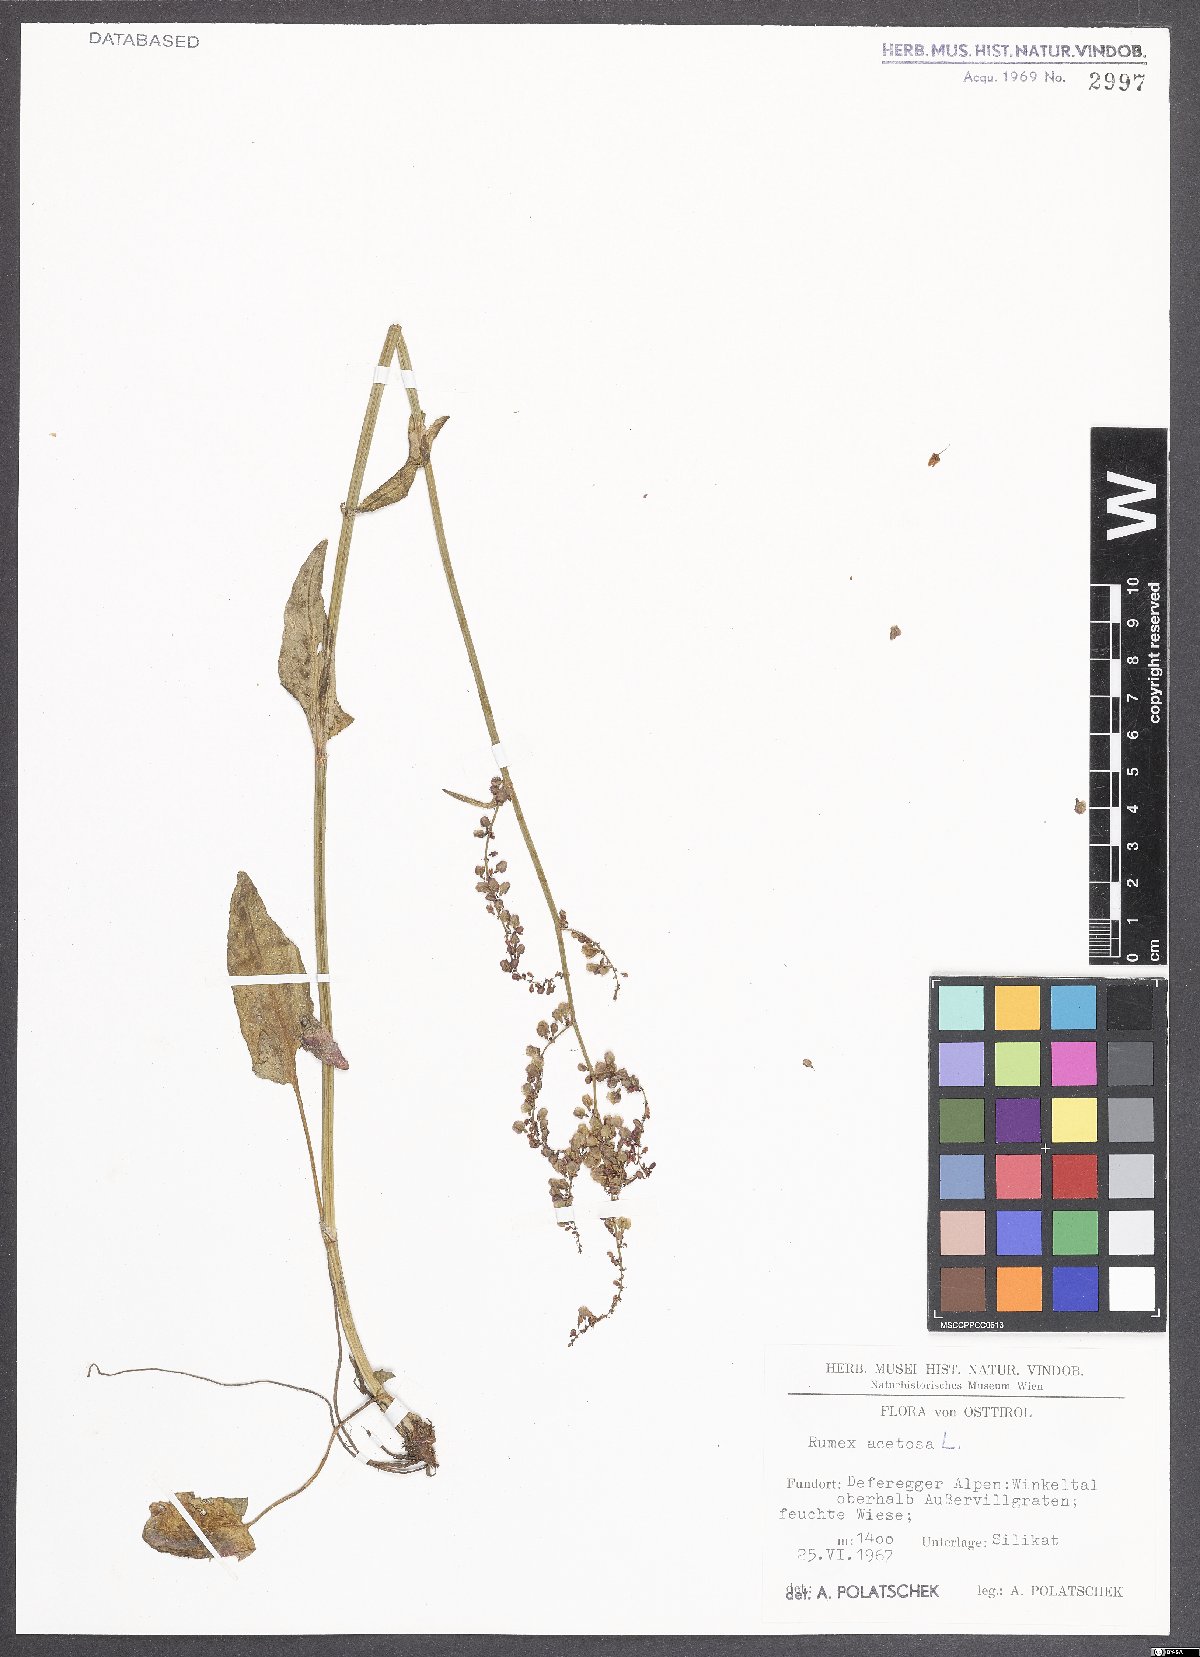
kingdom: Plantae
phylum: Tracheophyta
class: Magnoliopsida
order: Caryophyllales
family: Polygonaceae
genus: Rumex
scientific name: Rumex acetosa
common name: Garden sorrel
